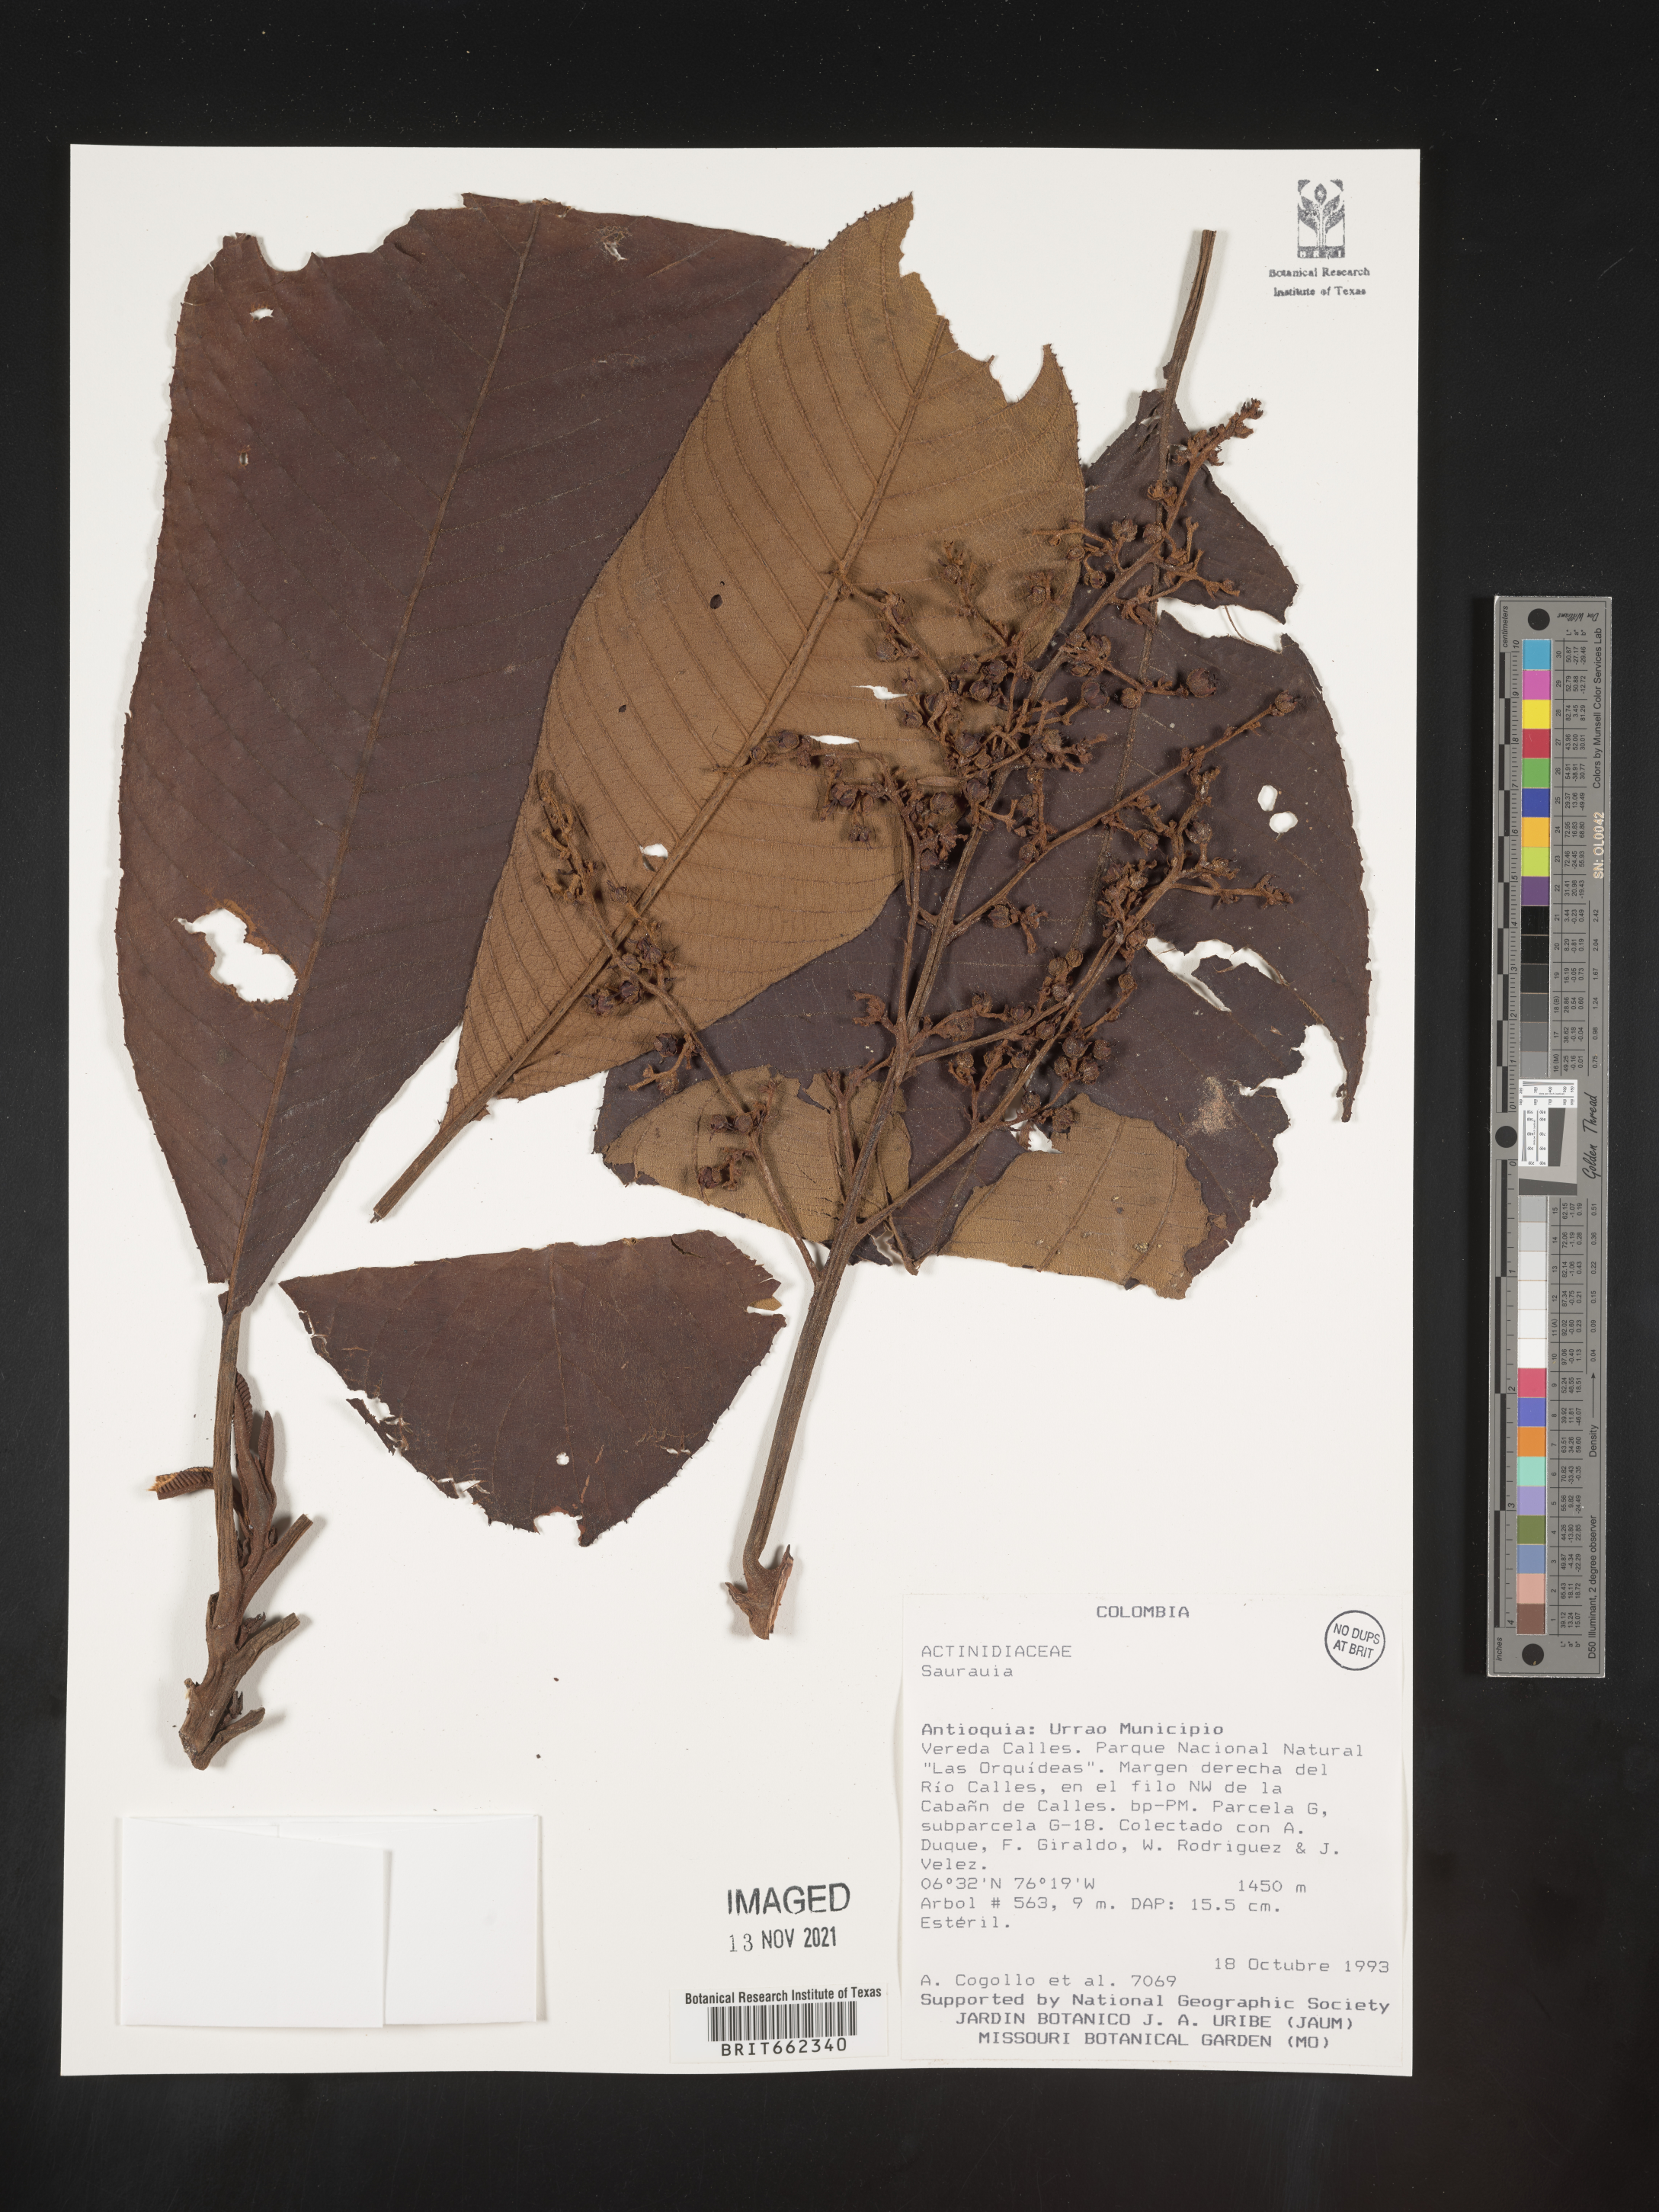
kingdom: Plantae
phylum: Tracheophyta
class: Magnoliopsida
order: Ericales
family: Actinidiaceae
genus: Saurauia
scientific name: Saurauia
